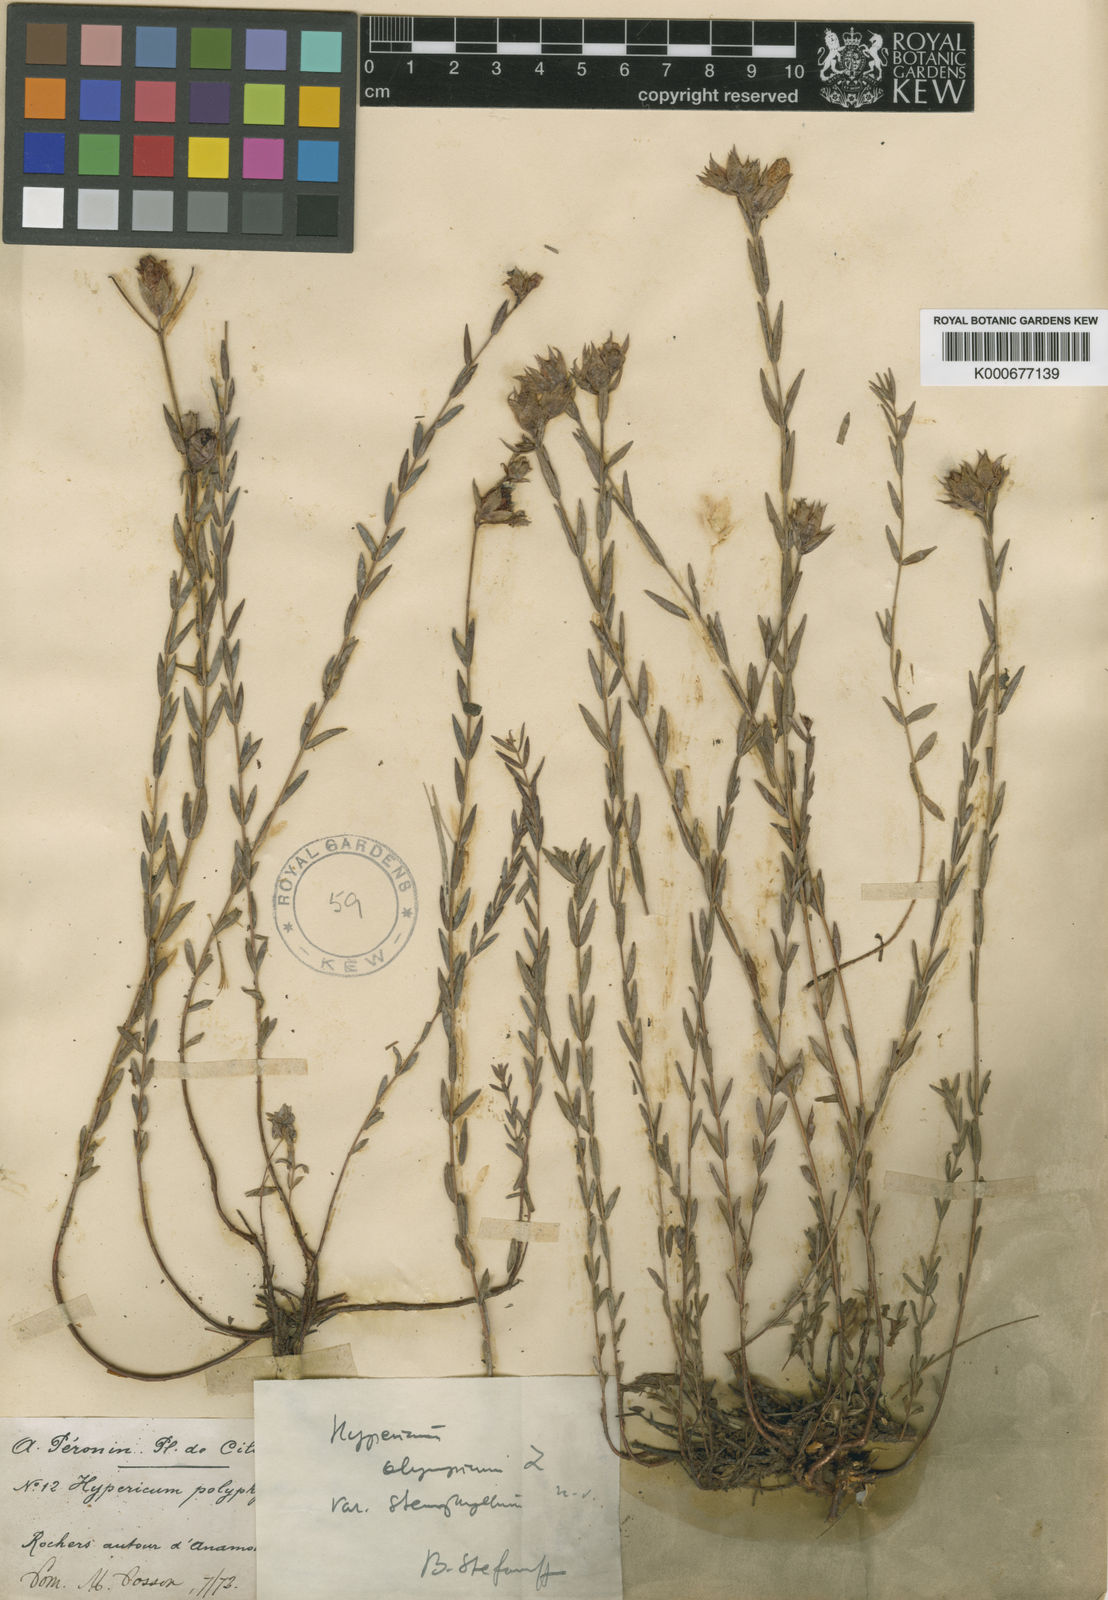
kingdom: Plantae
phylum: Tracheophyta
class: Magnoliopsida
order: Malpighiales
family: Hypericaceae
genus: Hypericum
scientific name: Hypericum polyphyllum
